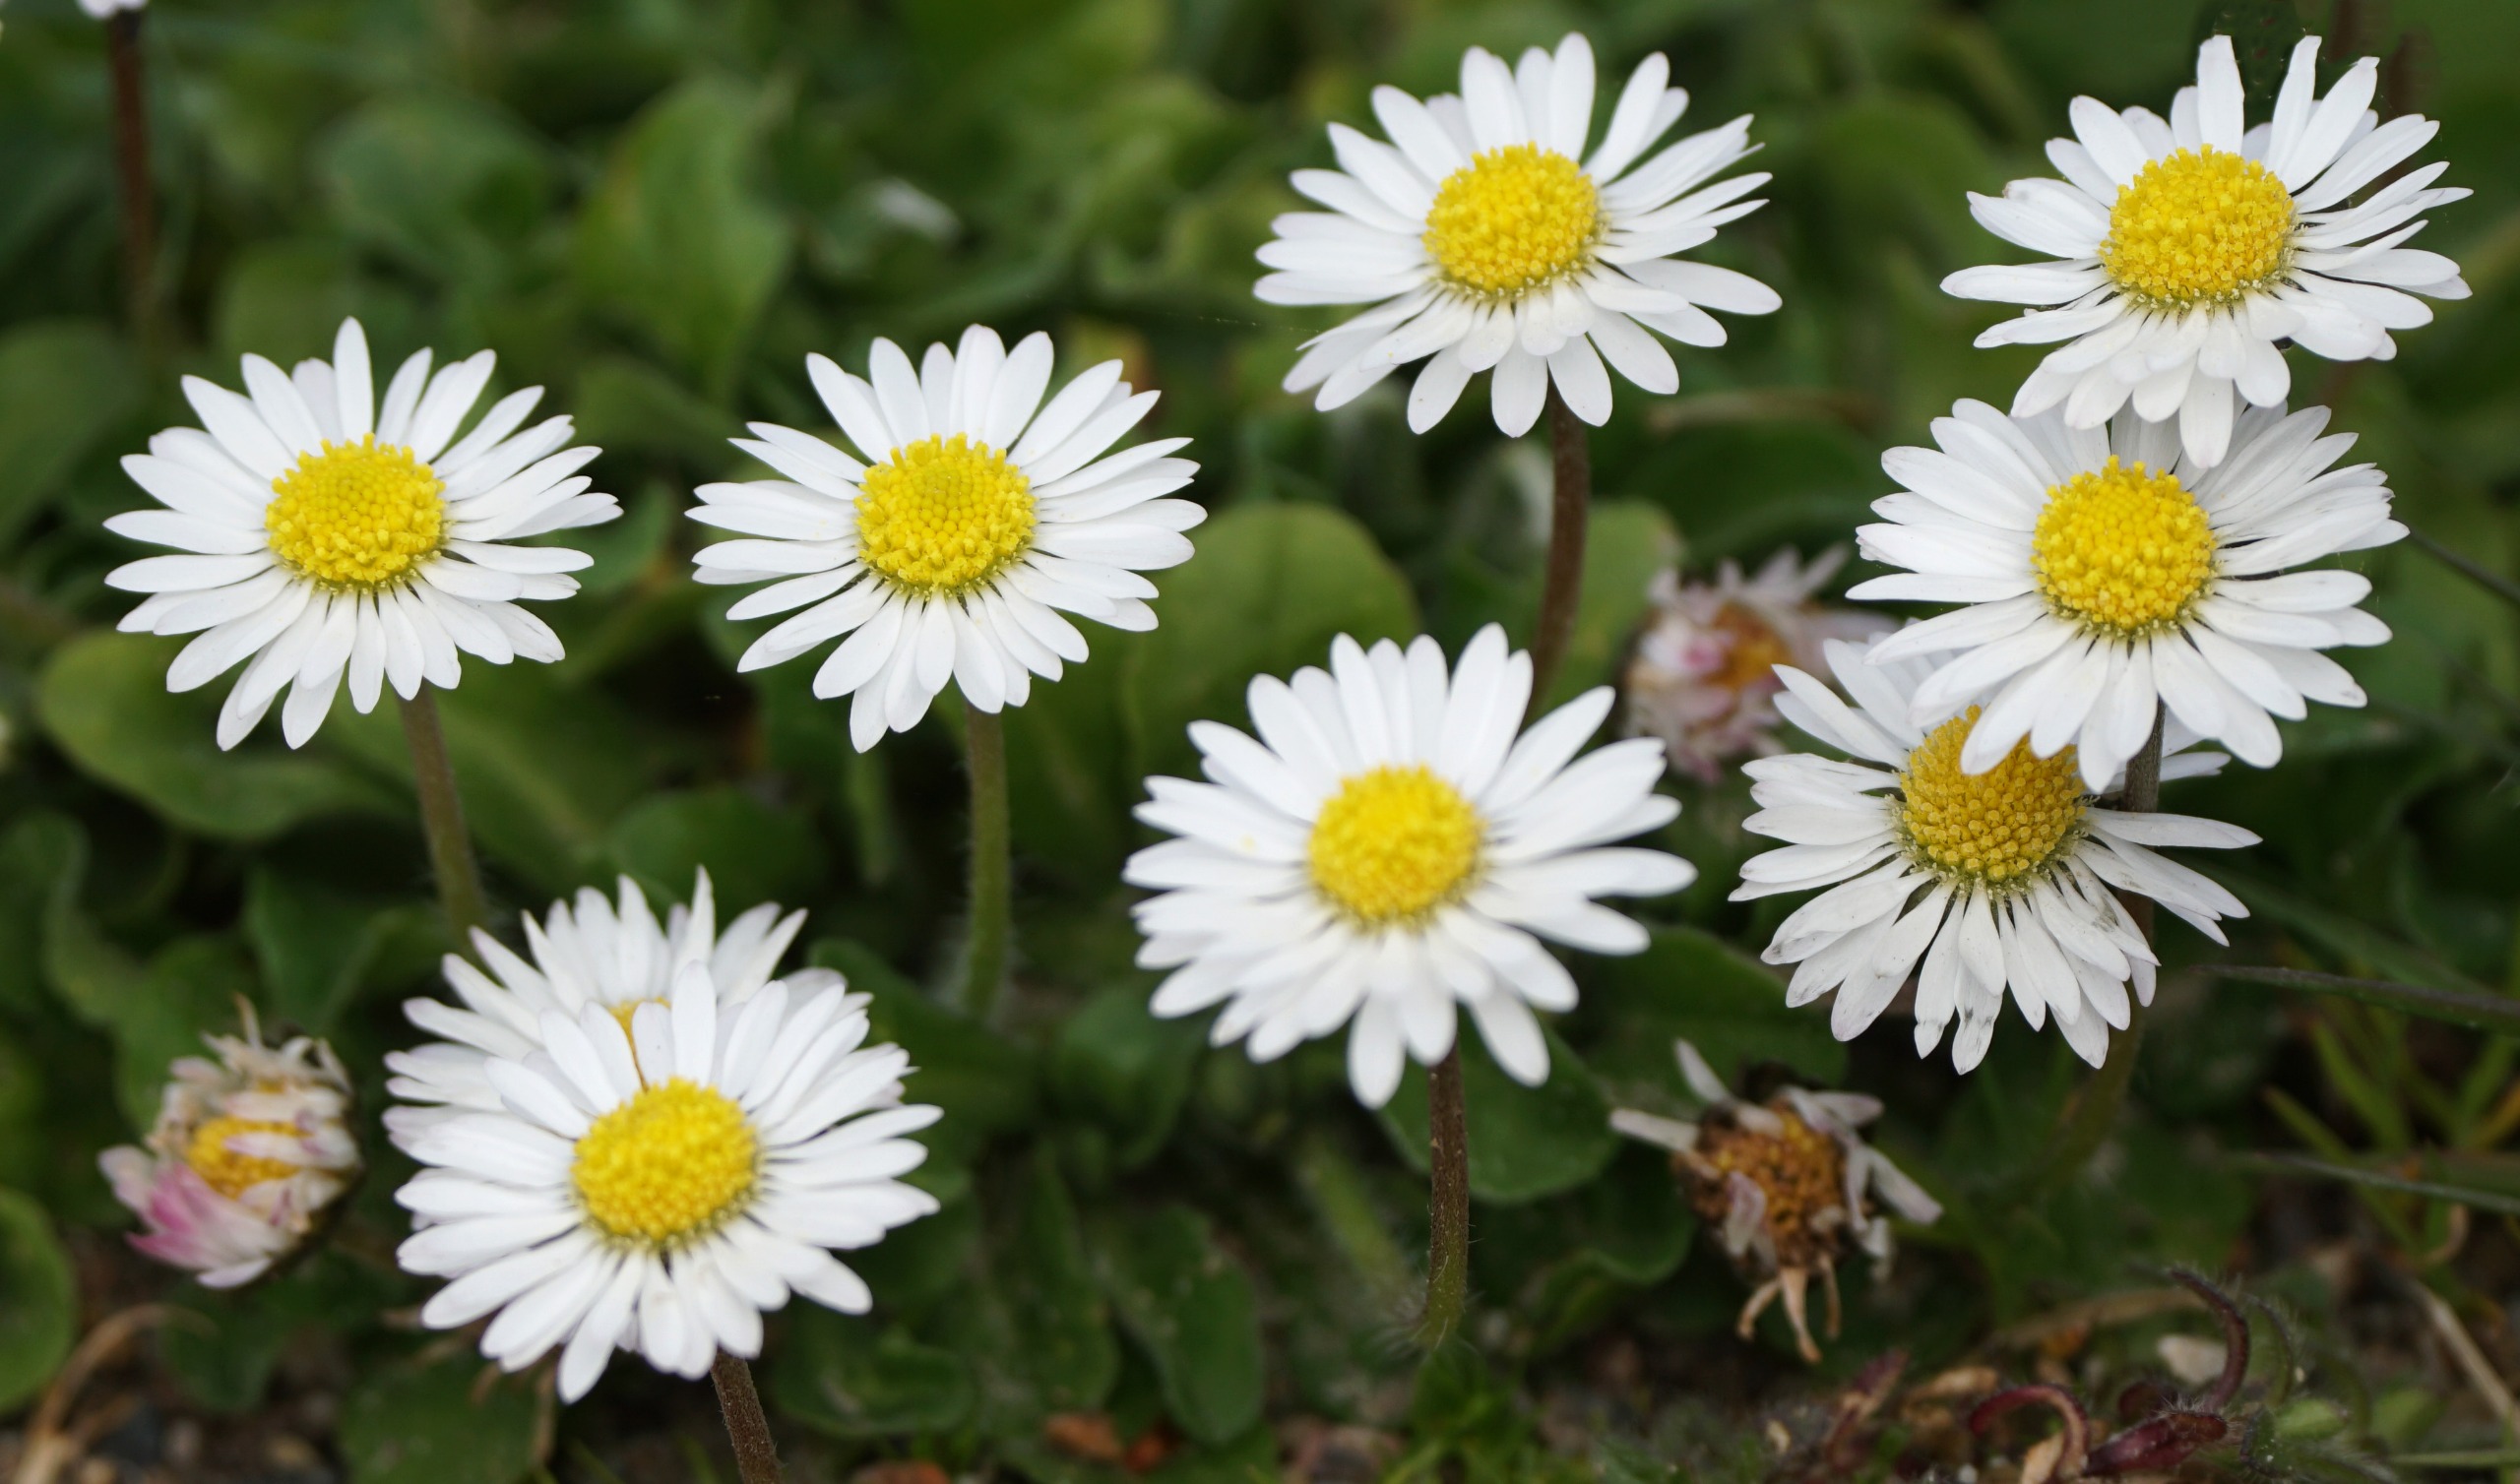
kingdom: Plantae
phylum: Tracheophyta
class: Magnoliopsida
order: Asterales
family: Asteraceae
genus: Bellis
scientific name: Bellis perennis
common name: Tusindfryd
